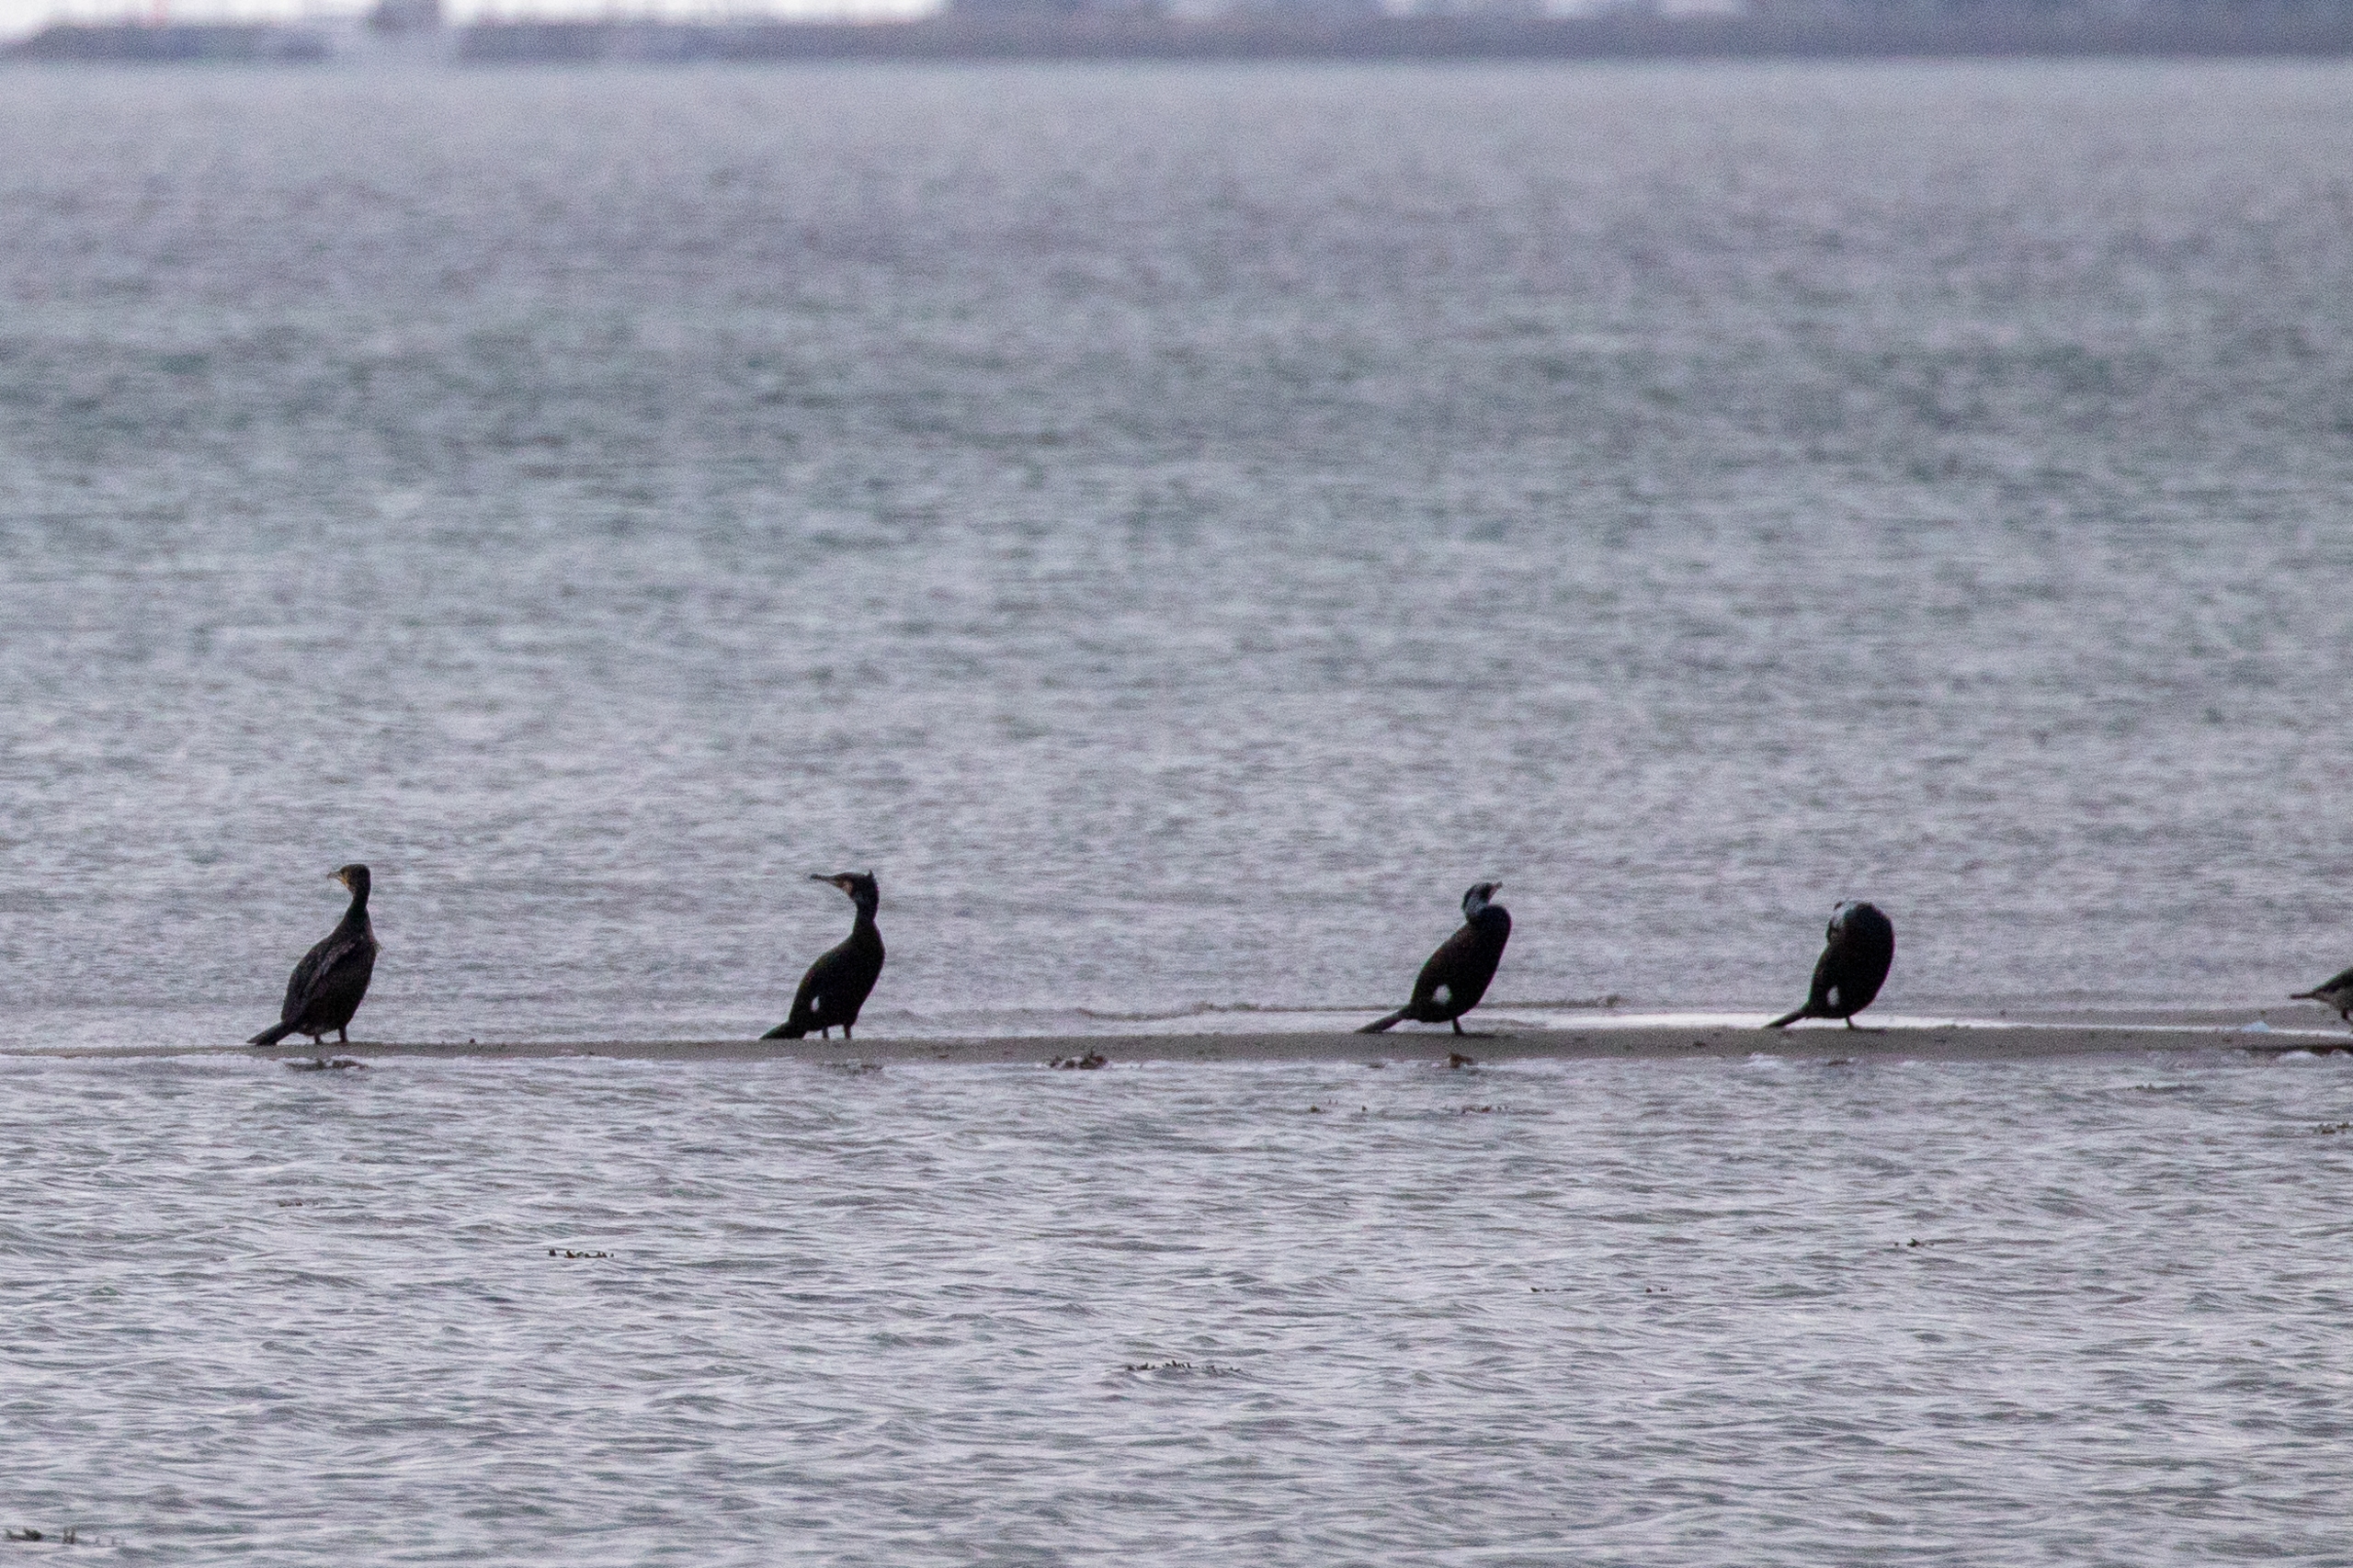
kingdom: Animalia
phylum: Chordata
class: Aves
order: Suliformes
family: Phalacrocoracidae
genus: Phalacrocorax
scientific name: Phalacrocorax carbo
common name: Skarv
